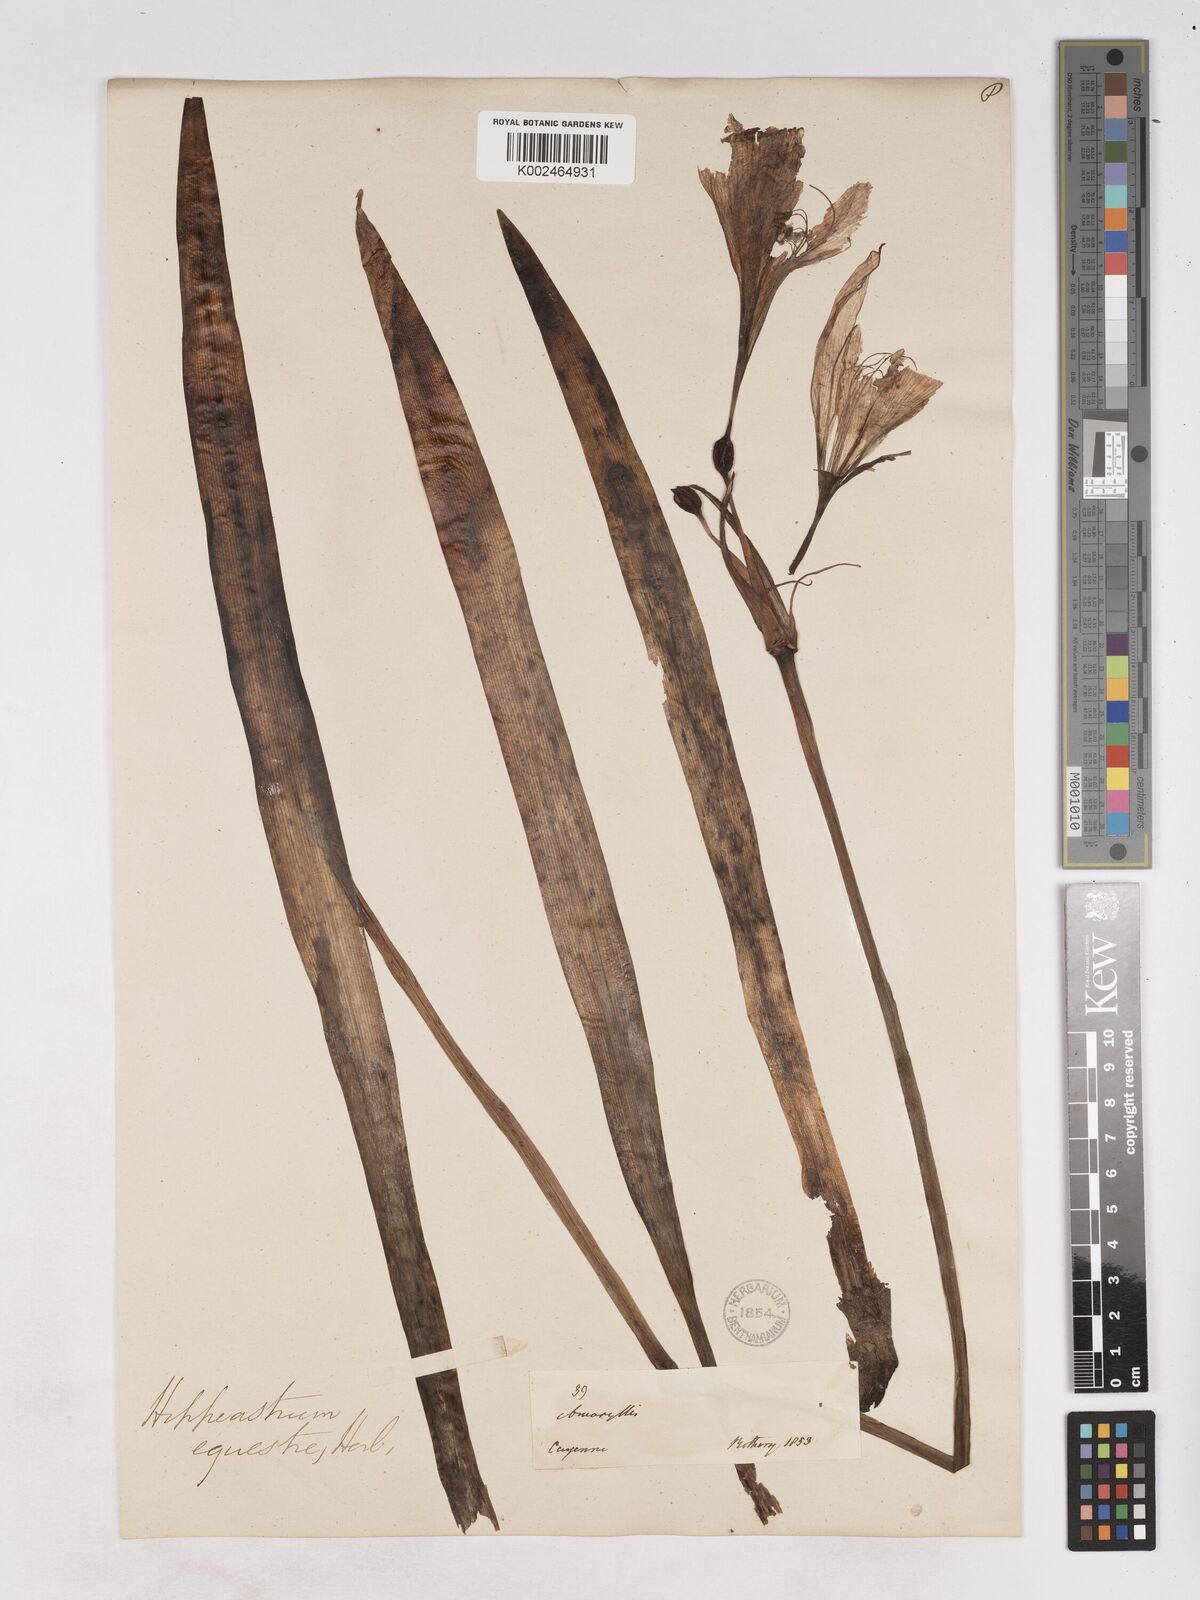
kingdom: Plantae
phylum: Tracheophyta
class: Liliopsida
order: Asparagales
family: Amaryllidaceae
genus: Hippeastrum
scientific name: Hippeastrum puniceum
